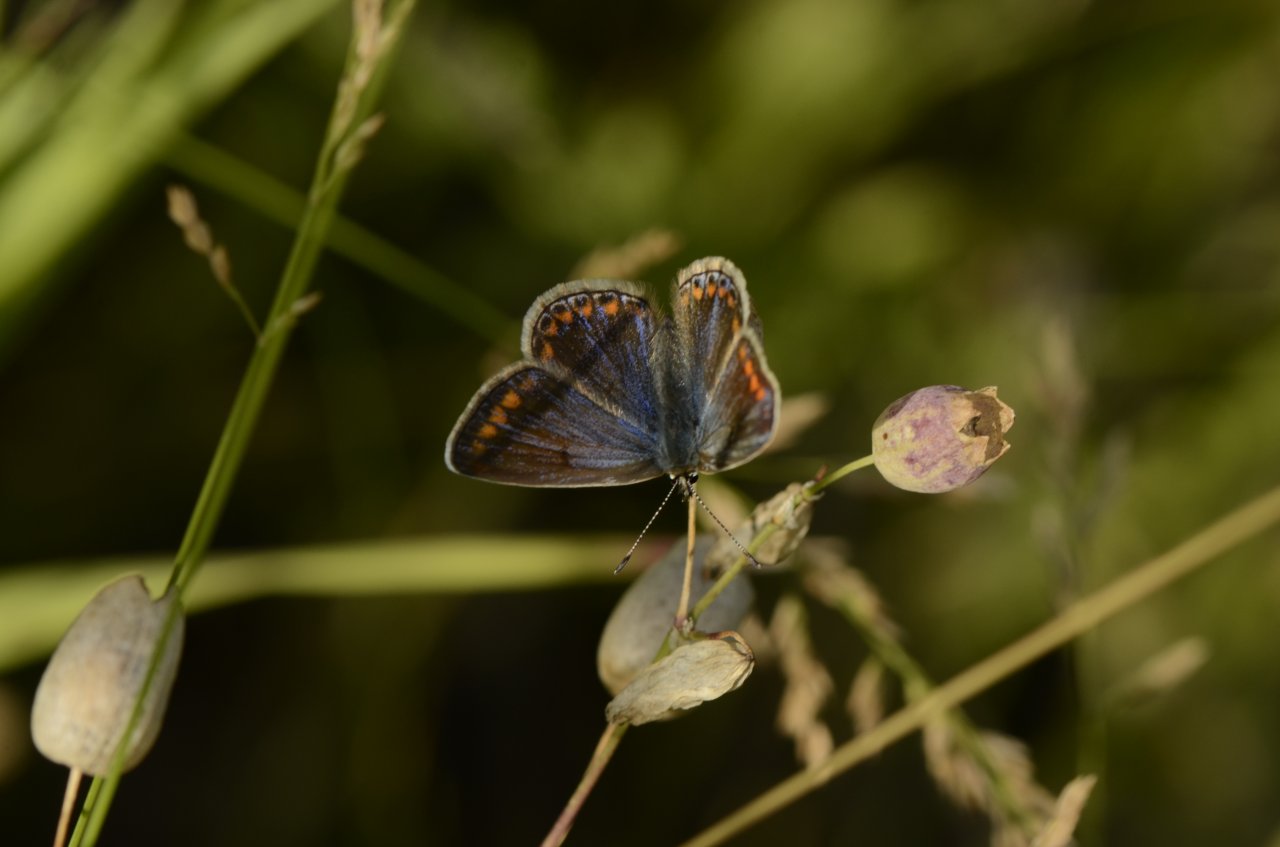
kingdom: Animalia
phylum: Arthropoda
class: Insecta
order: Lepidoptera
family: Lycaenidae
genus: Polyommatus
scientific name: Polyommatus icarus
